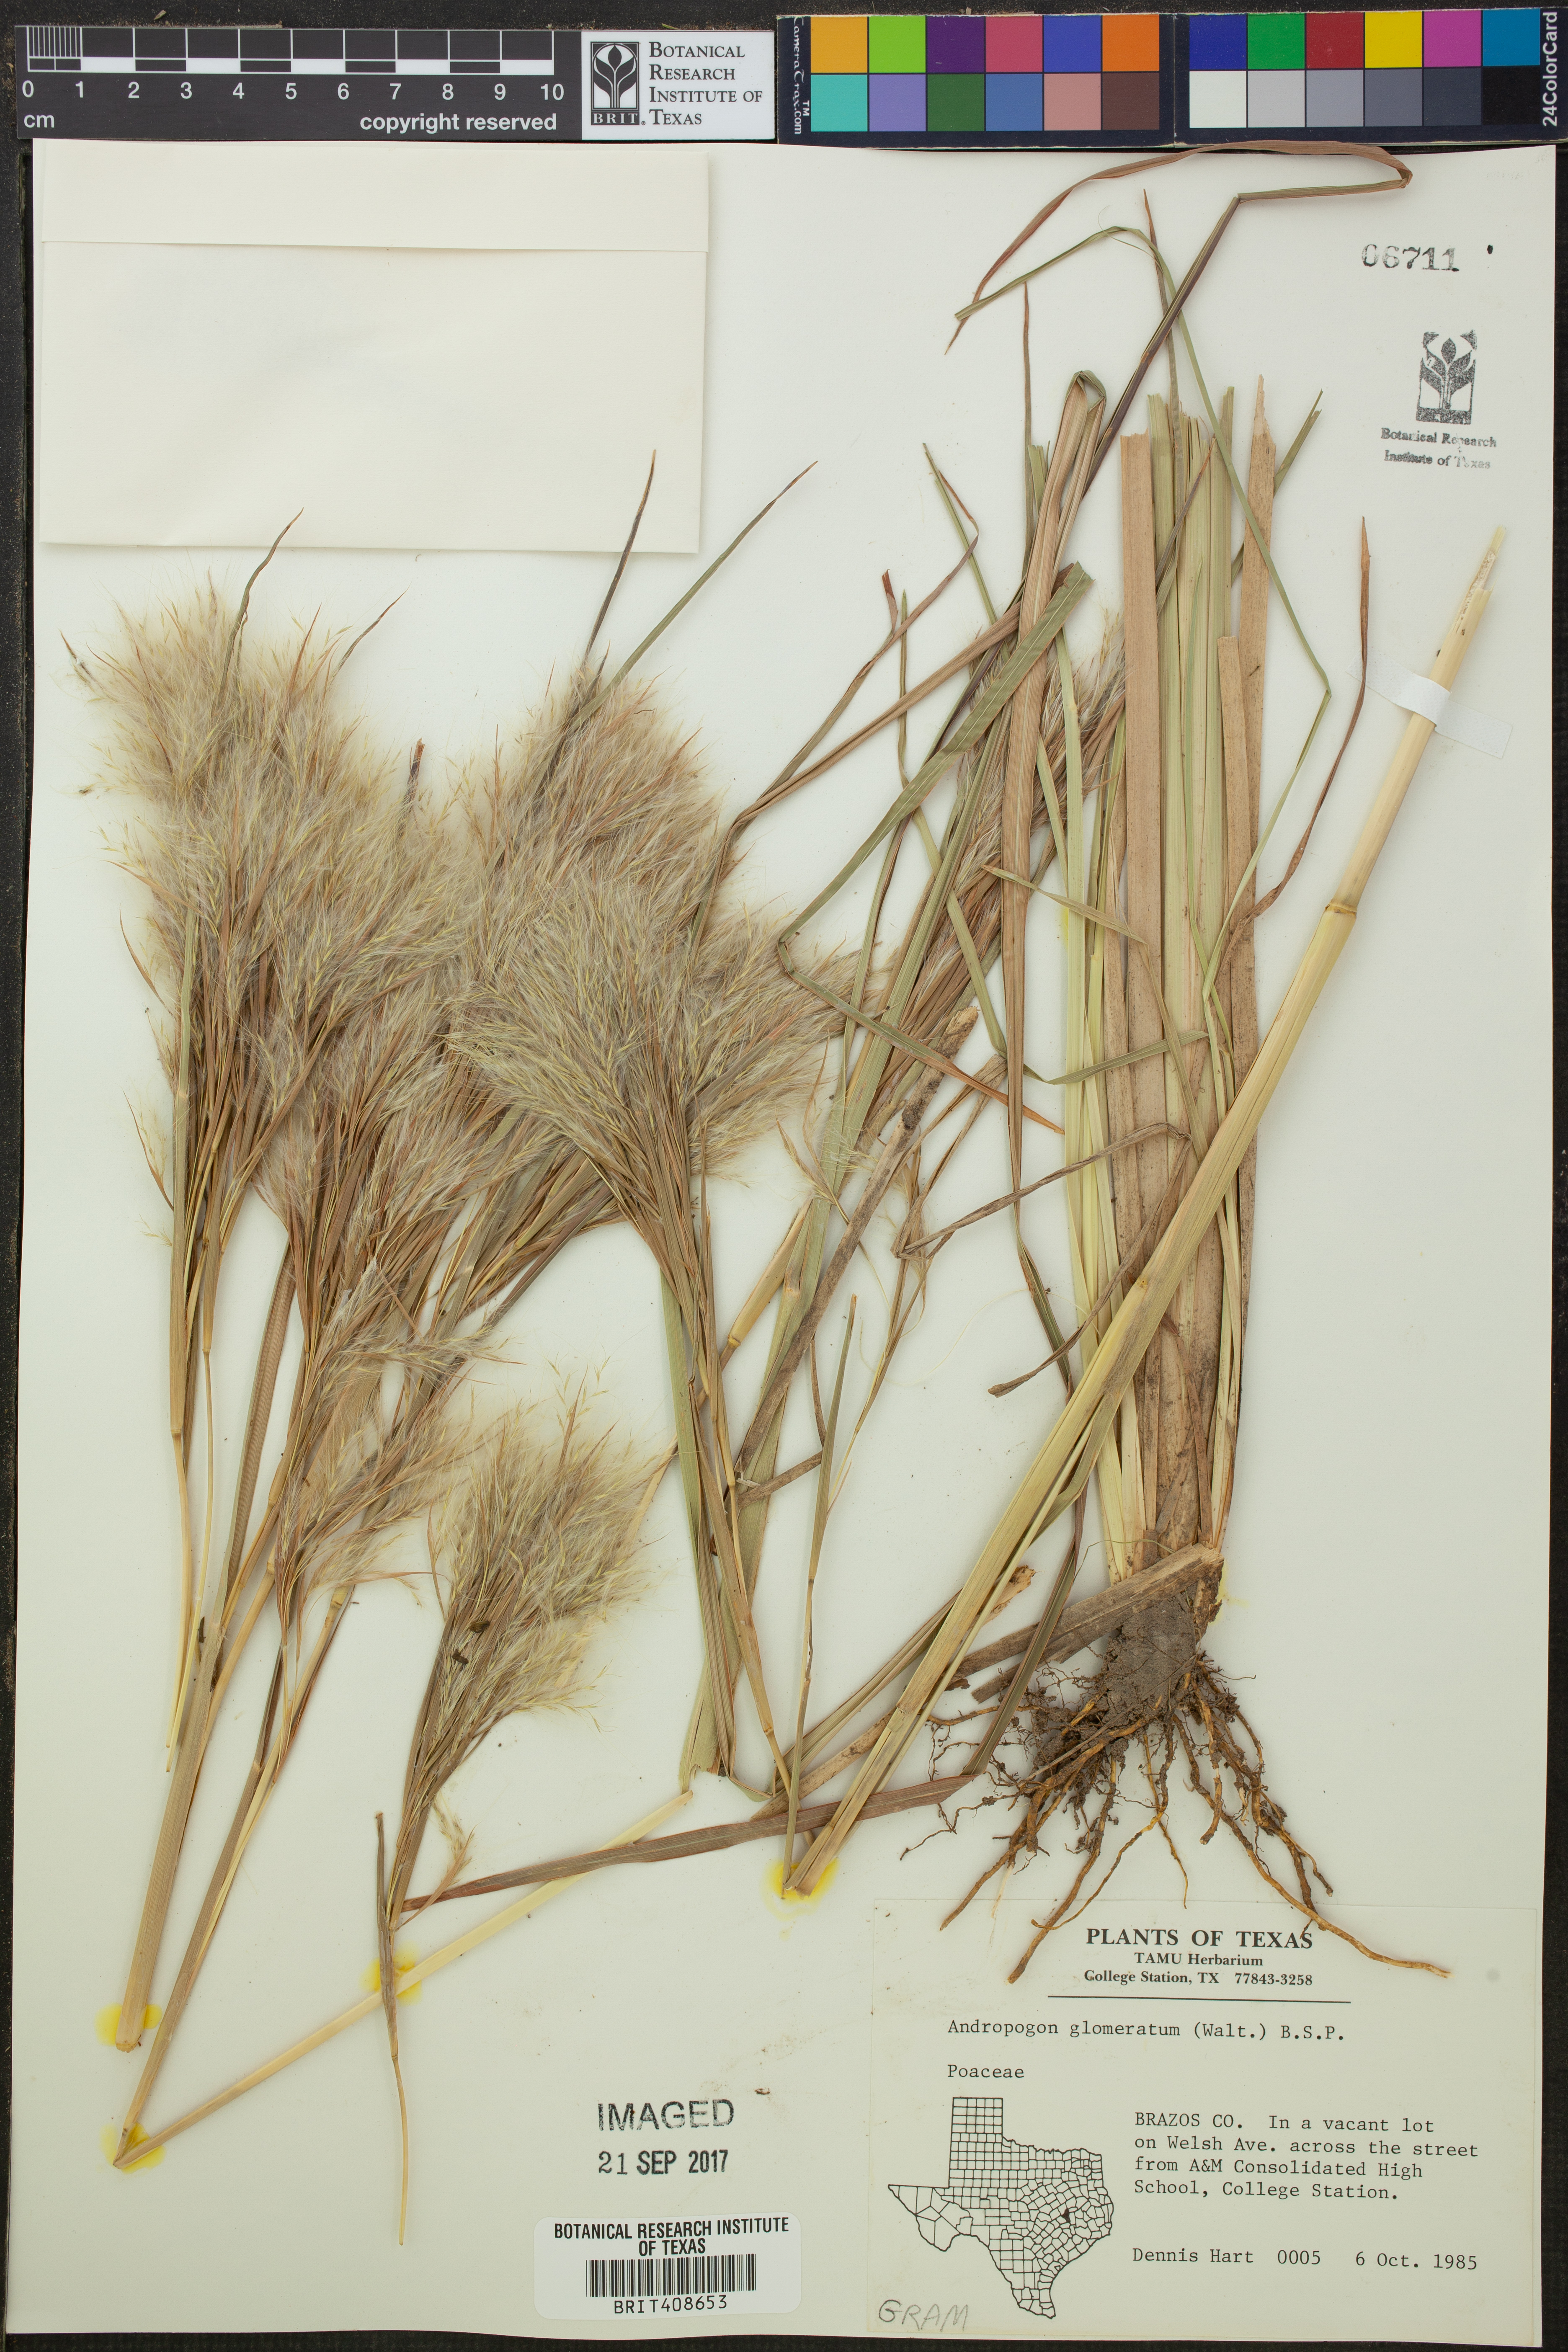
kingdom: Plantae
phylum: Tracheophyta
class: Liliopsida
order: Poales
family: Poaceae
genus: Andropogon
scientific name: Andropogon glomeratus
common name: Bushy beard grass
